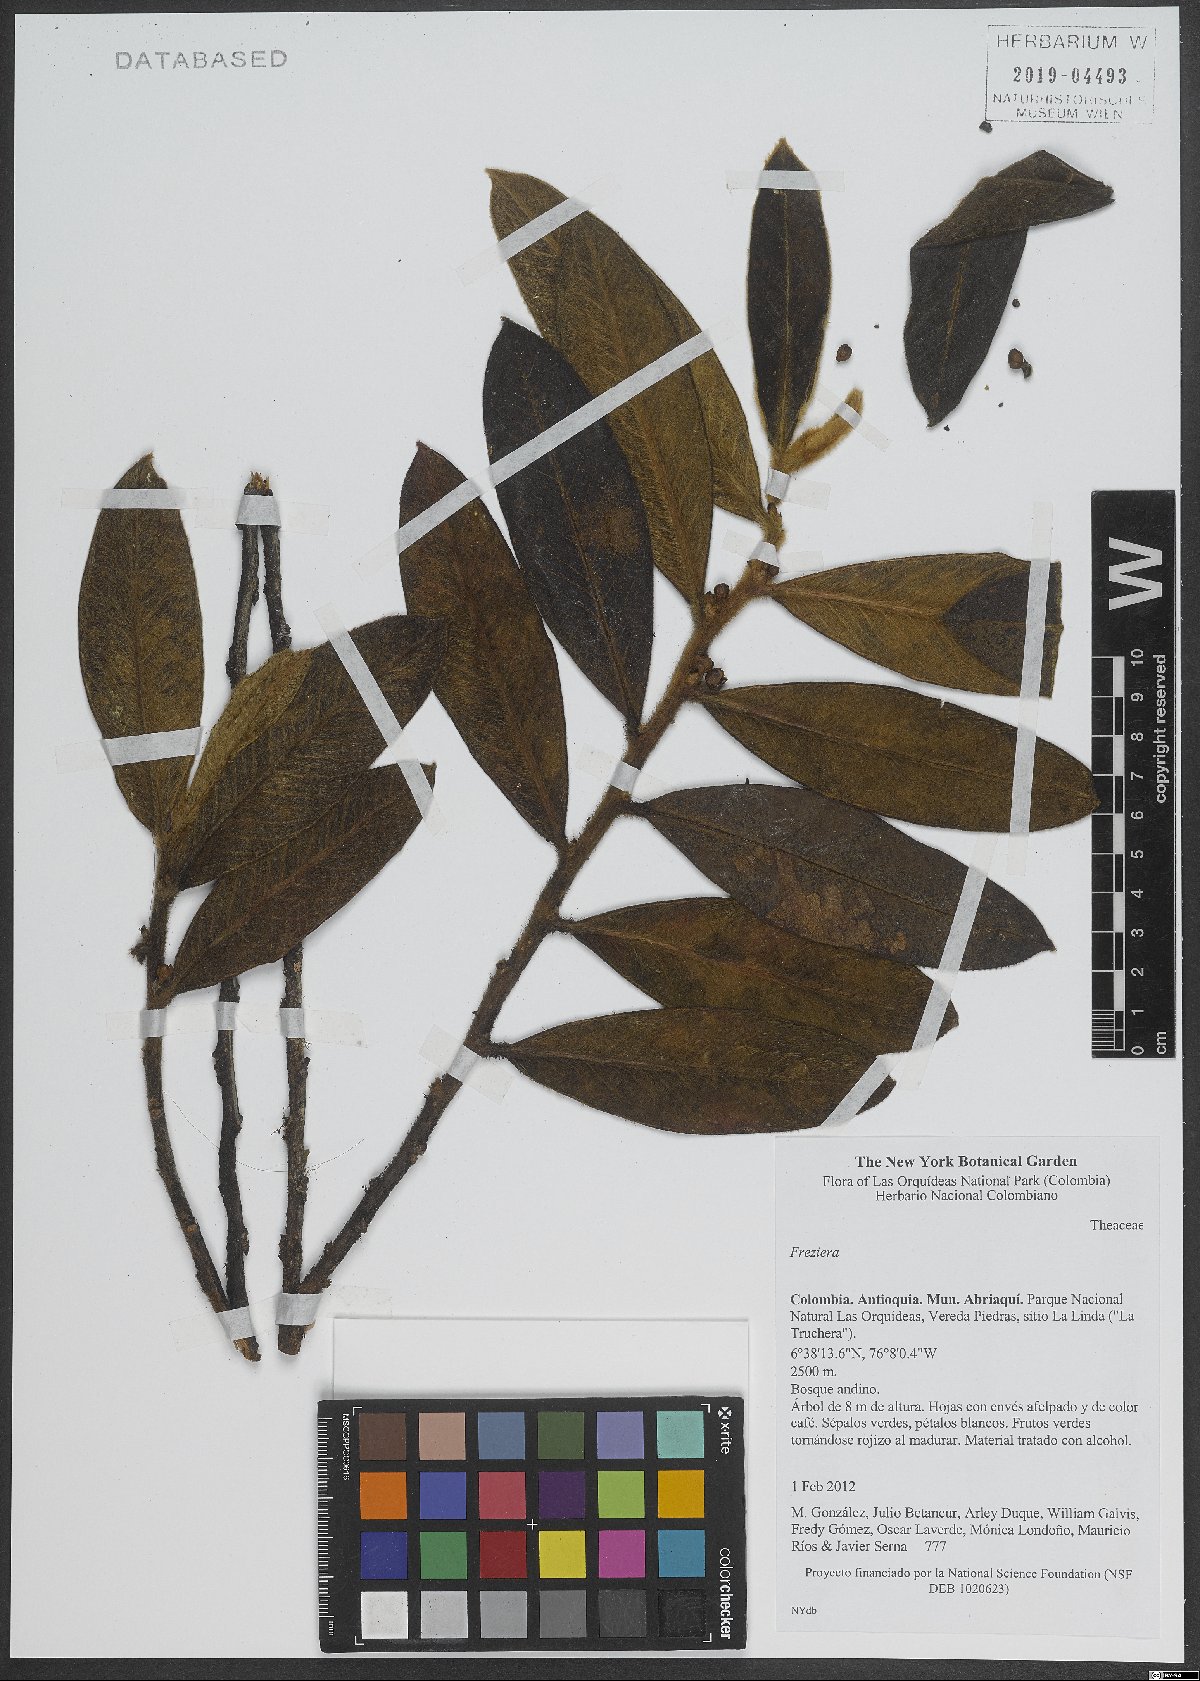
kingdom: Plantae
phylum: Tracheophyta
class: Magnoliopsida
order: Ericales
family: Pentaphylacaceae
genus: Freziera
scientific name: Freziera
